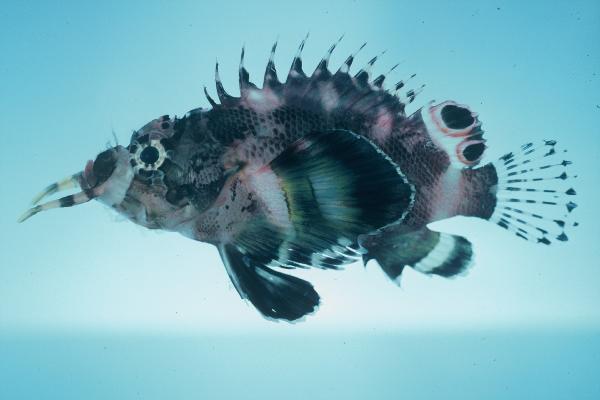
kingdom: Animalia
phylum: Chordata
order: Scorpaeniformes
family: Scorpaenidae
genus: Dendrochirus
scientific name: Dendrochirus biocellatus
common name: Twinspot lionfish
